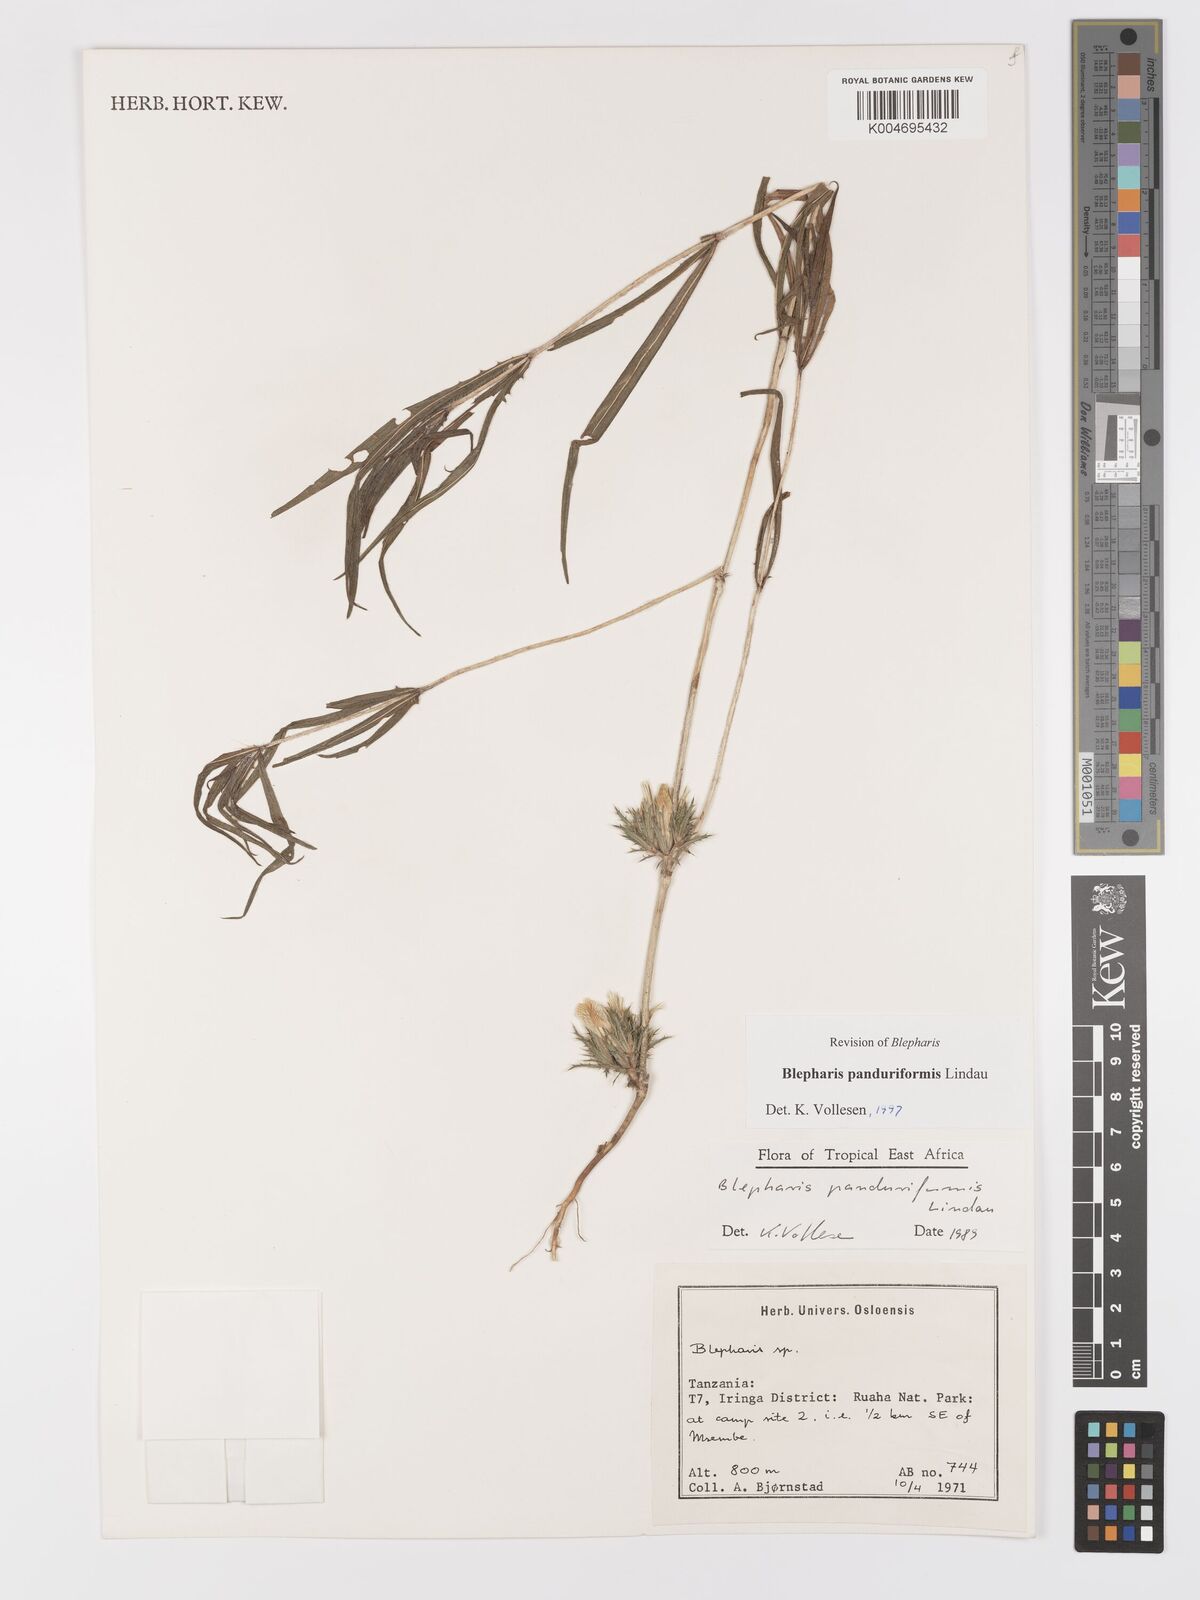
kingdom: Plantae
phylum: Tracheophyta
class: Magnoliopsida
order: Lamiales
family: Acanthaceae
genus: Blepharis
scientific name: Blepharis panduriformis
